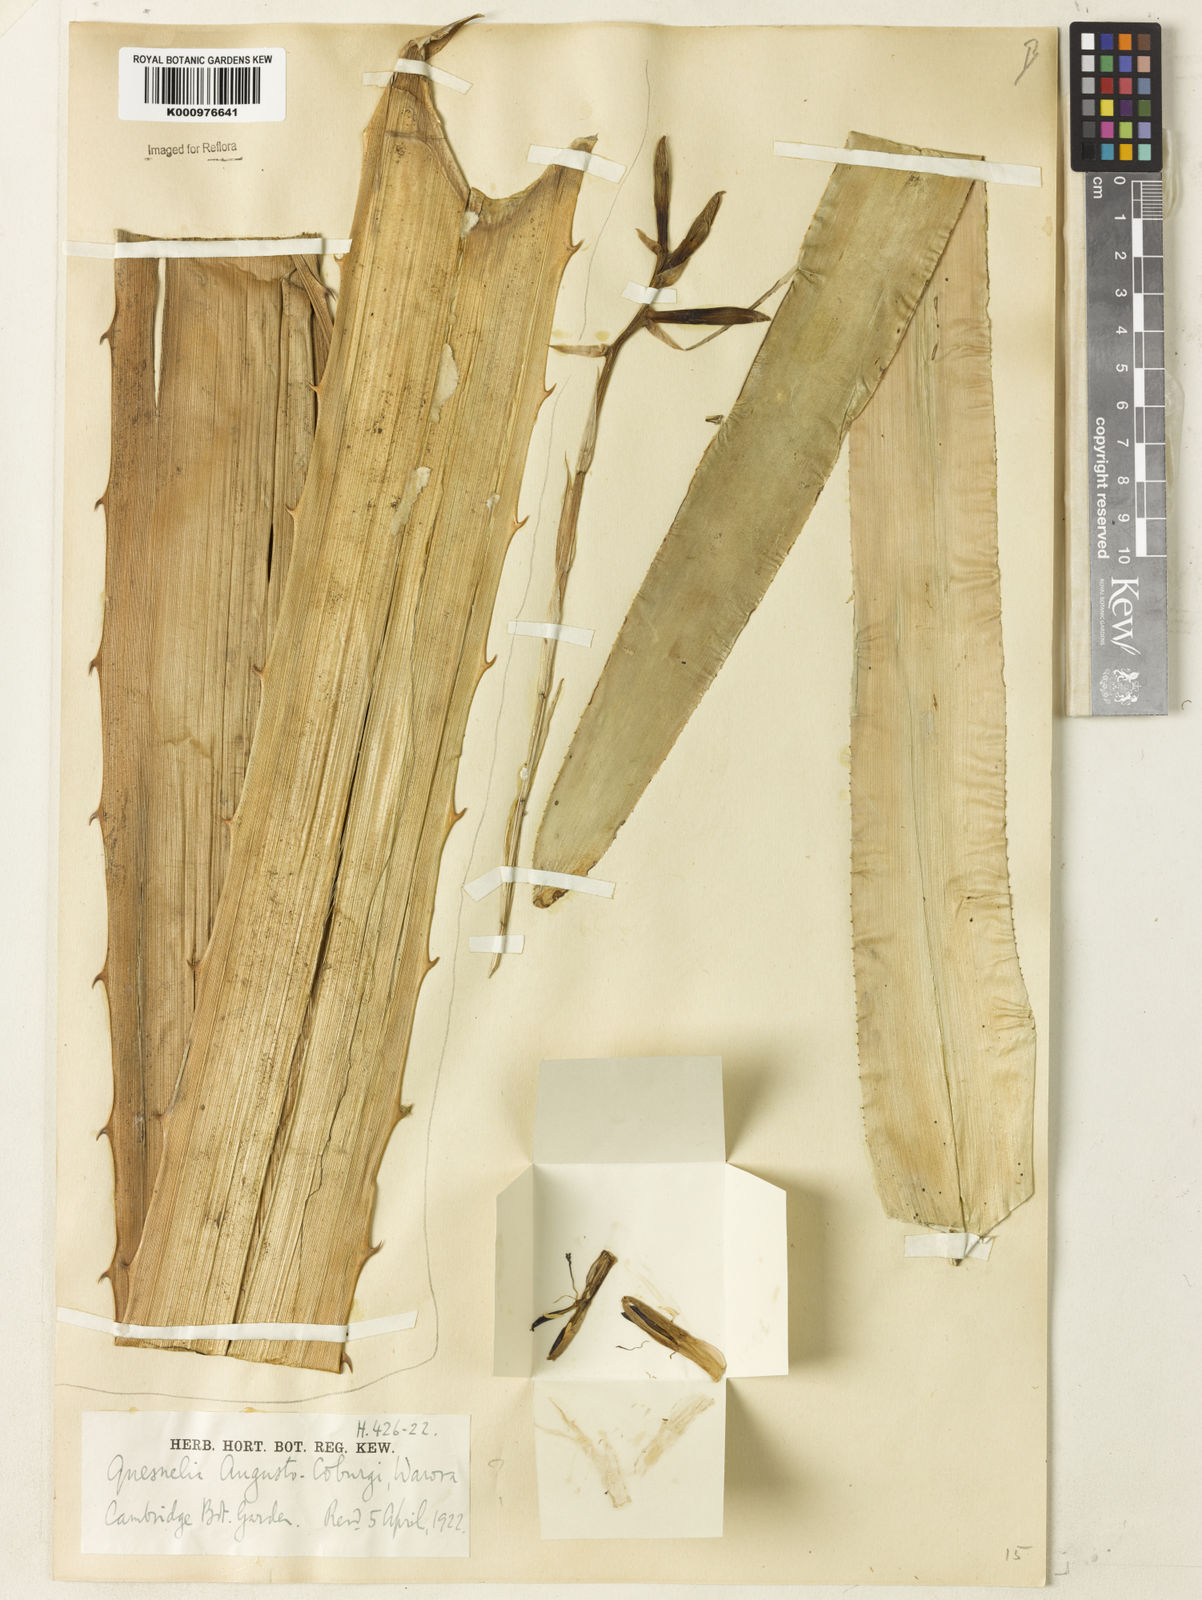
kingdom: Plantae
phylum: Tracheophyta
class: Liliopsida
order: Poales
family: Bromeliaceae
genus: Quesnelia
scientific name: Quesnelia augustocoburgi
